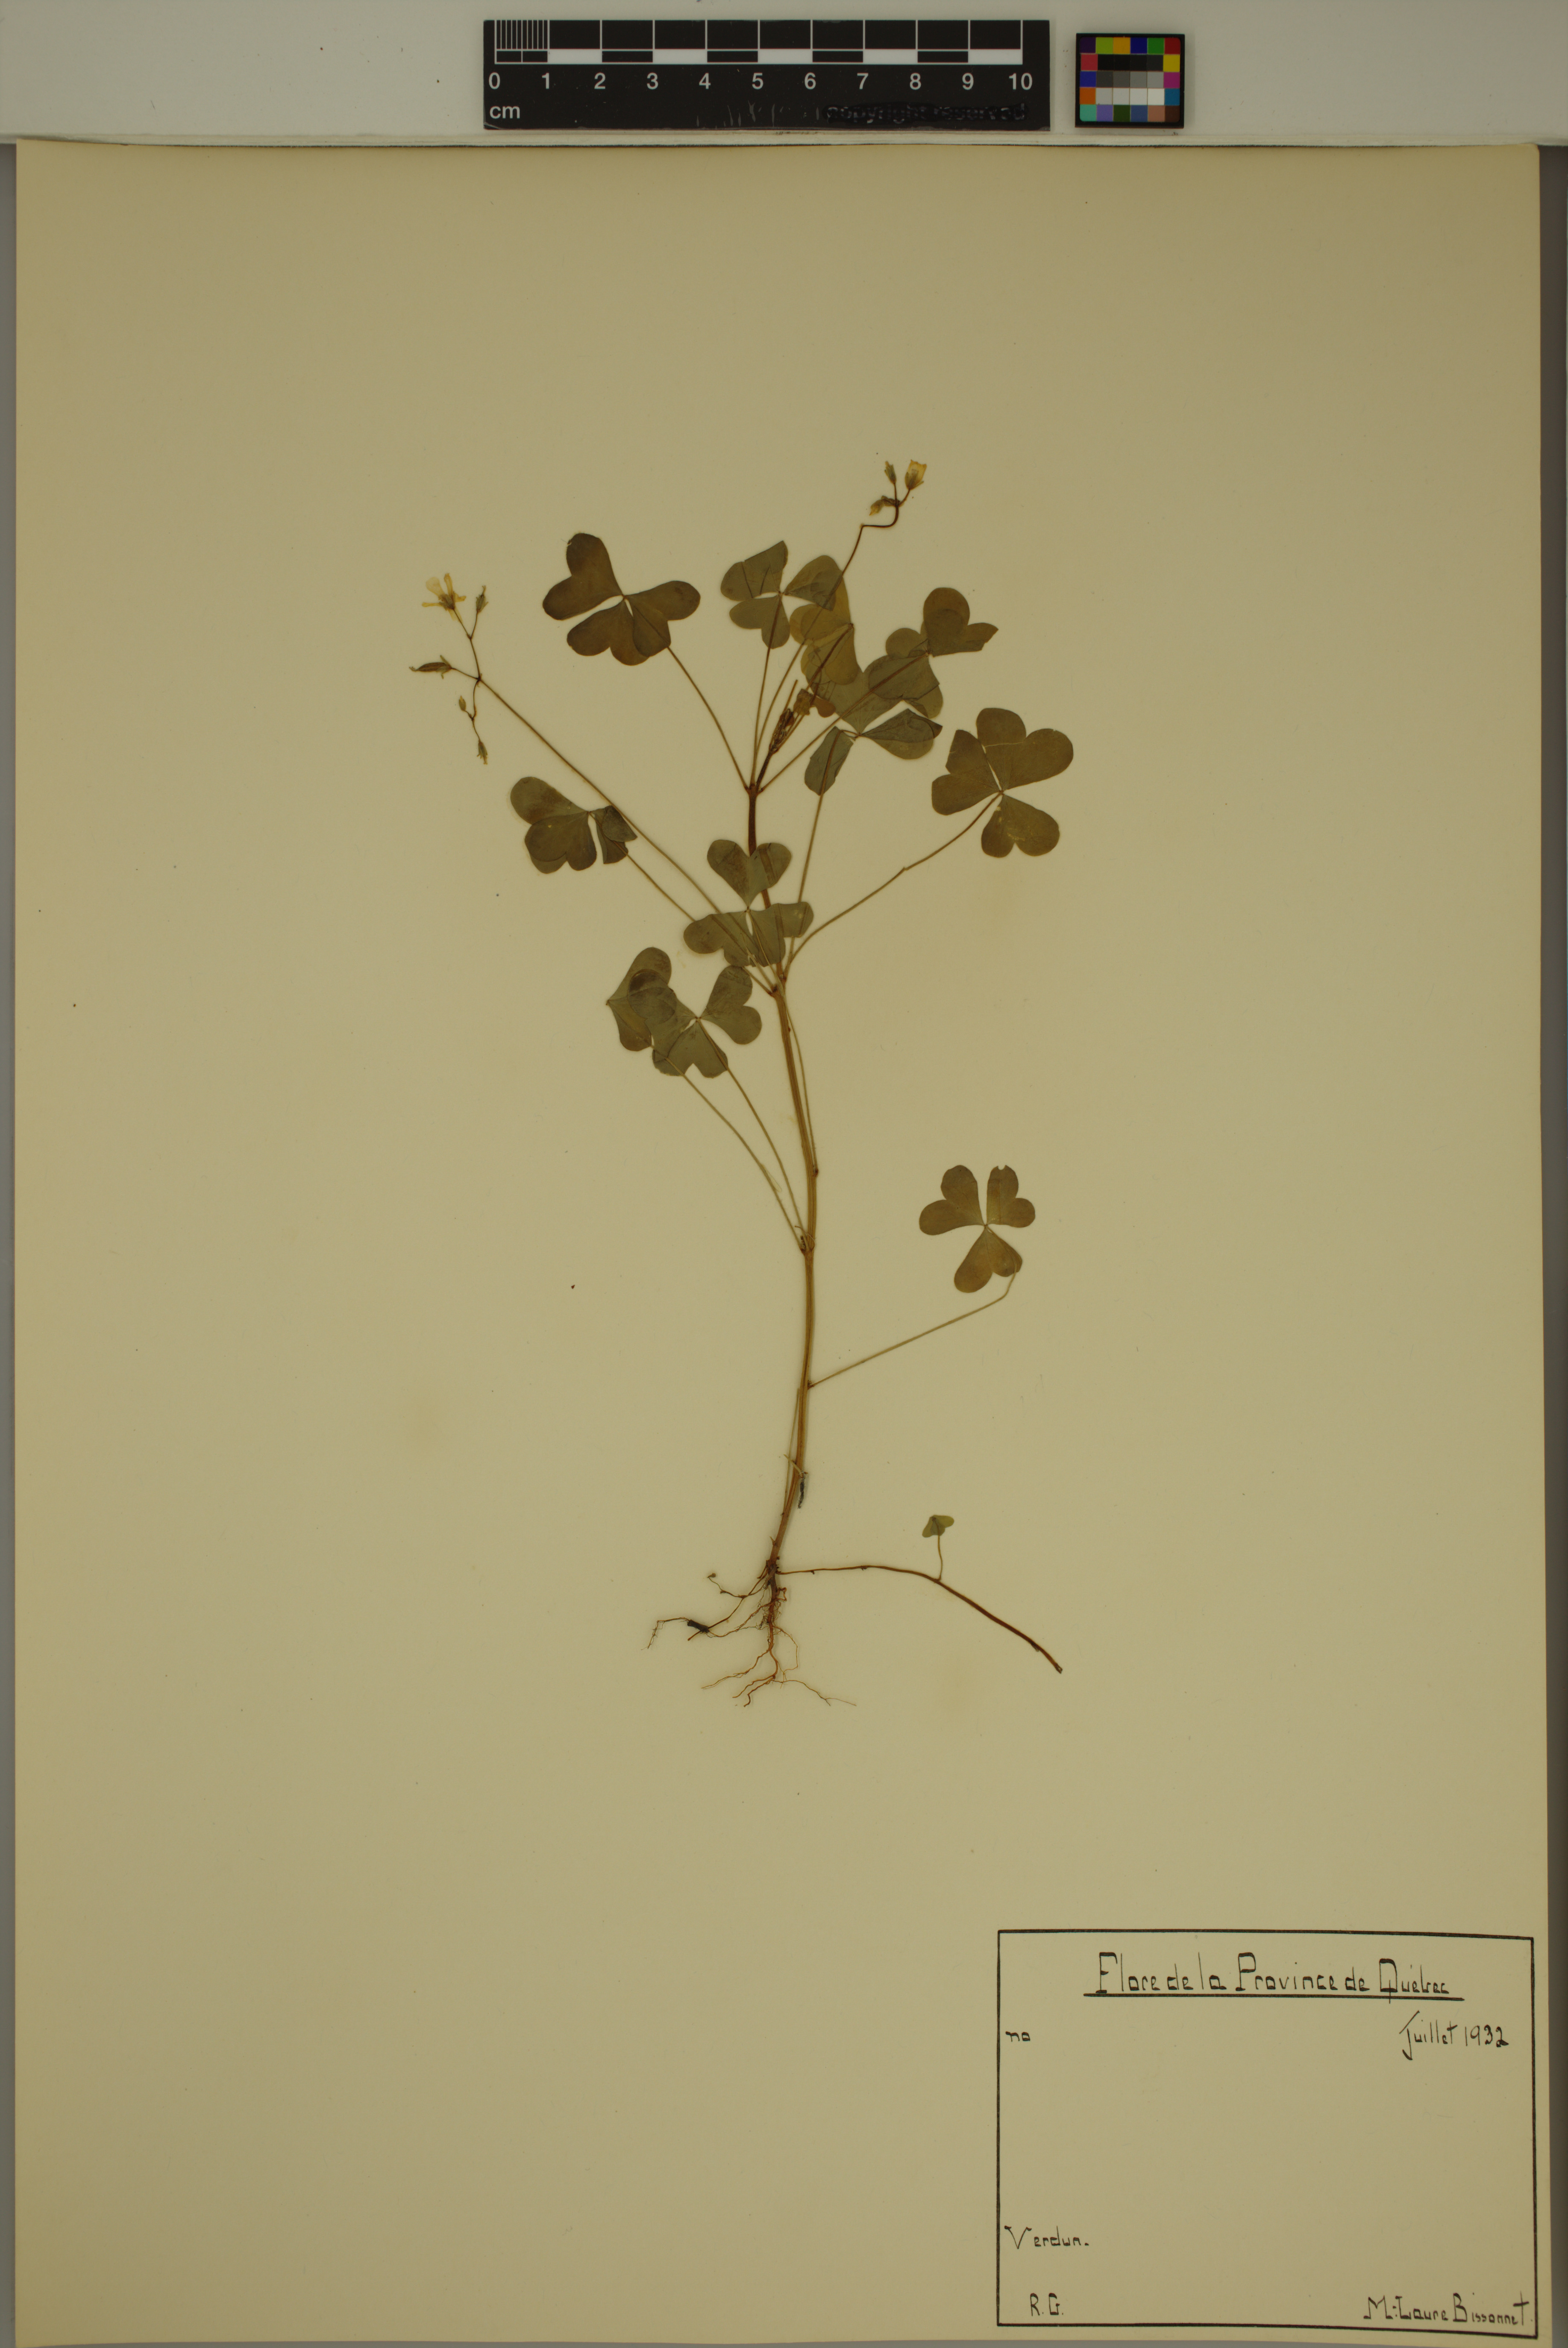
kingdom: Plantae
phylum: Tracheophyta
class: Magnoliopsida
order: Oxalidales
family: Oxalidaceae
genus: Oxalis
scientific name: Oxalis stricta
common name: Upright yellow-sorrel
